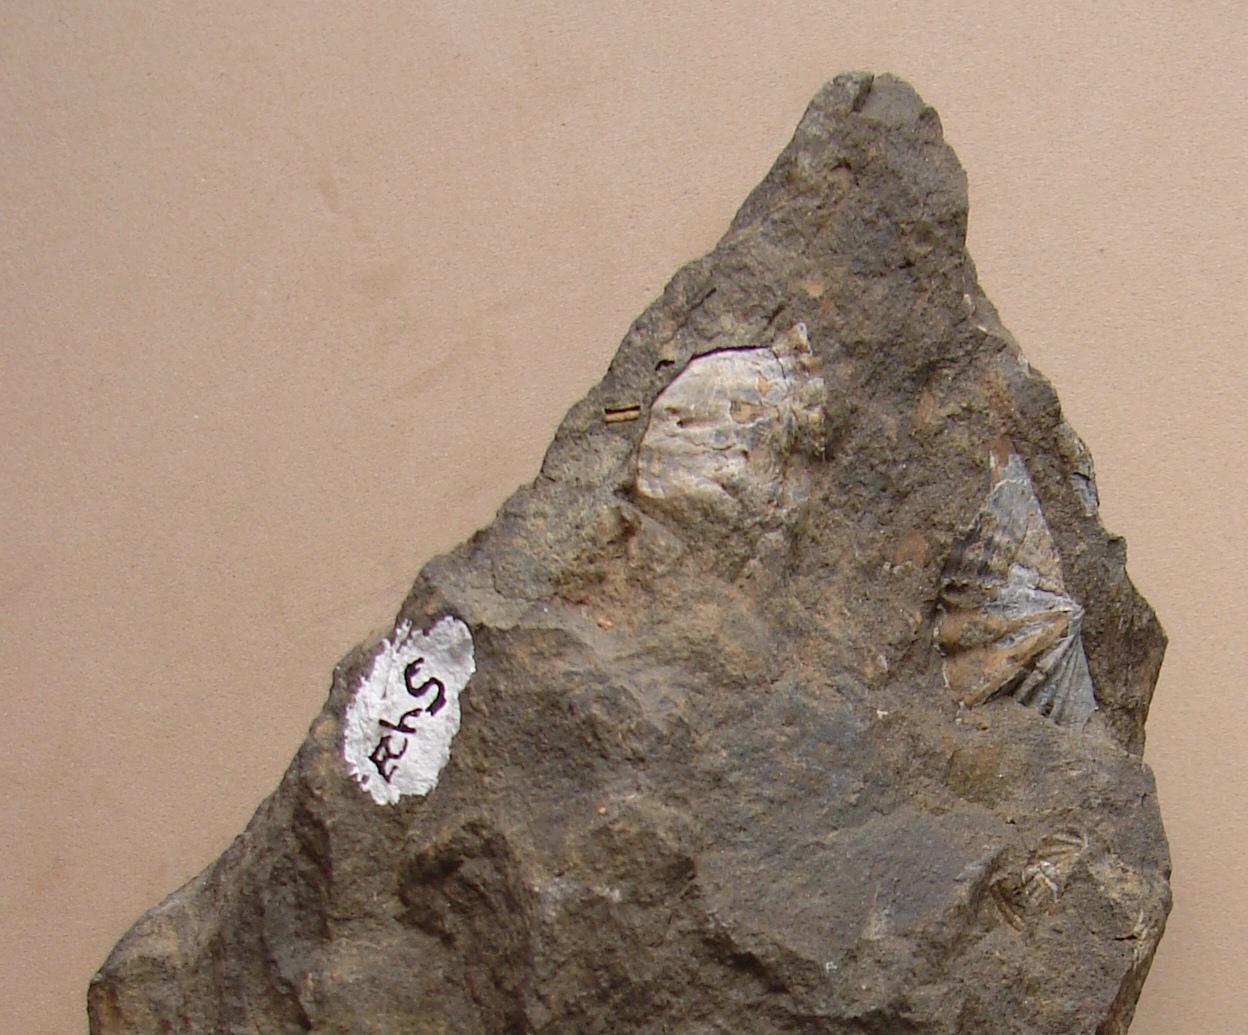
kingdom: Animalia
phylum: Brachiopoda
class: Rhynchonellata
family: Hysterolitidae
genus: Arduspirifer
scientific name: Arduspirifer Spirifer arduennensis
